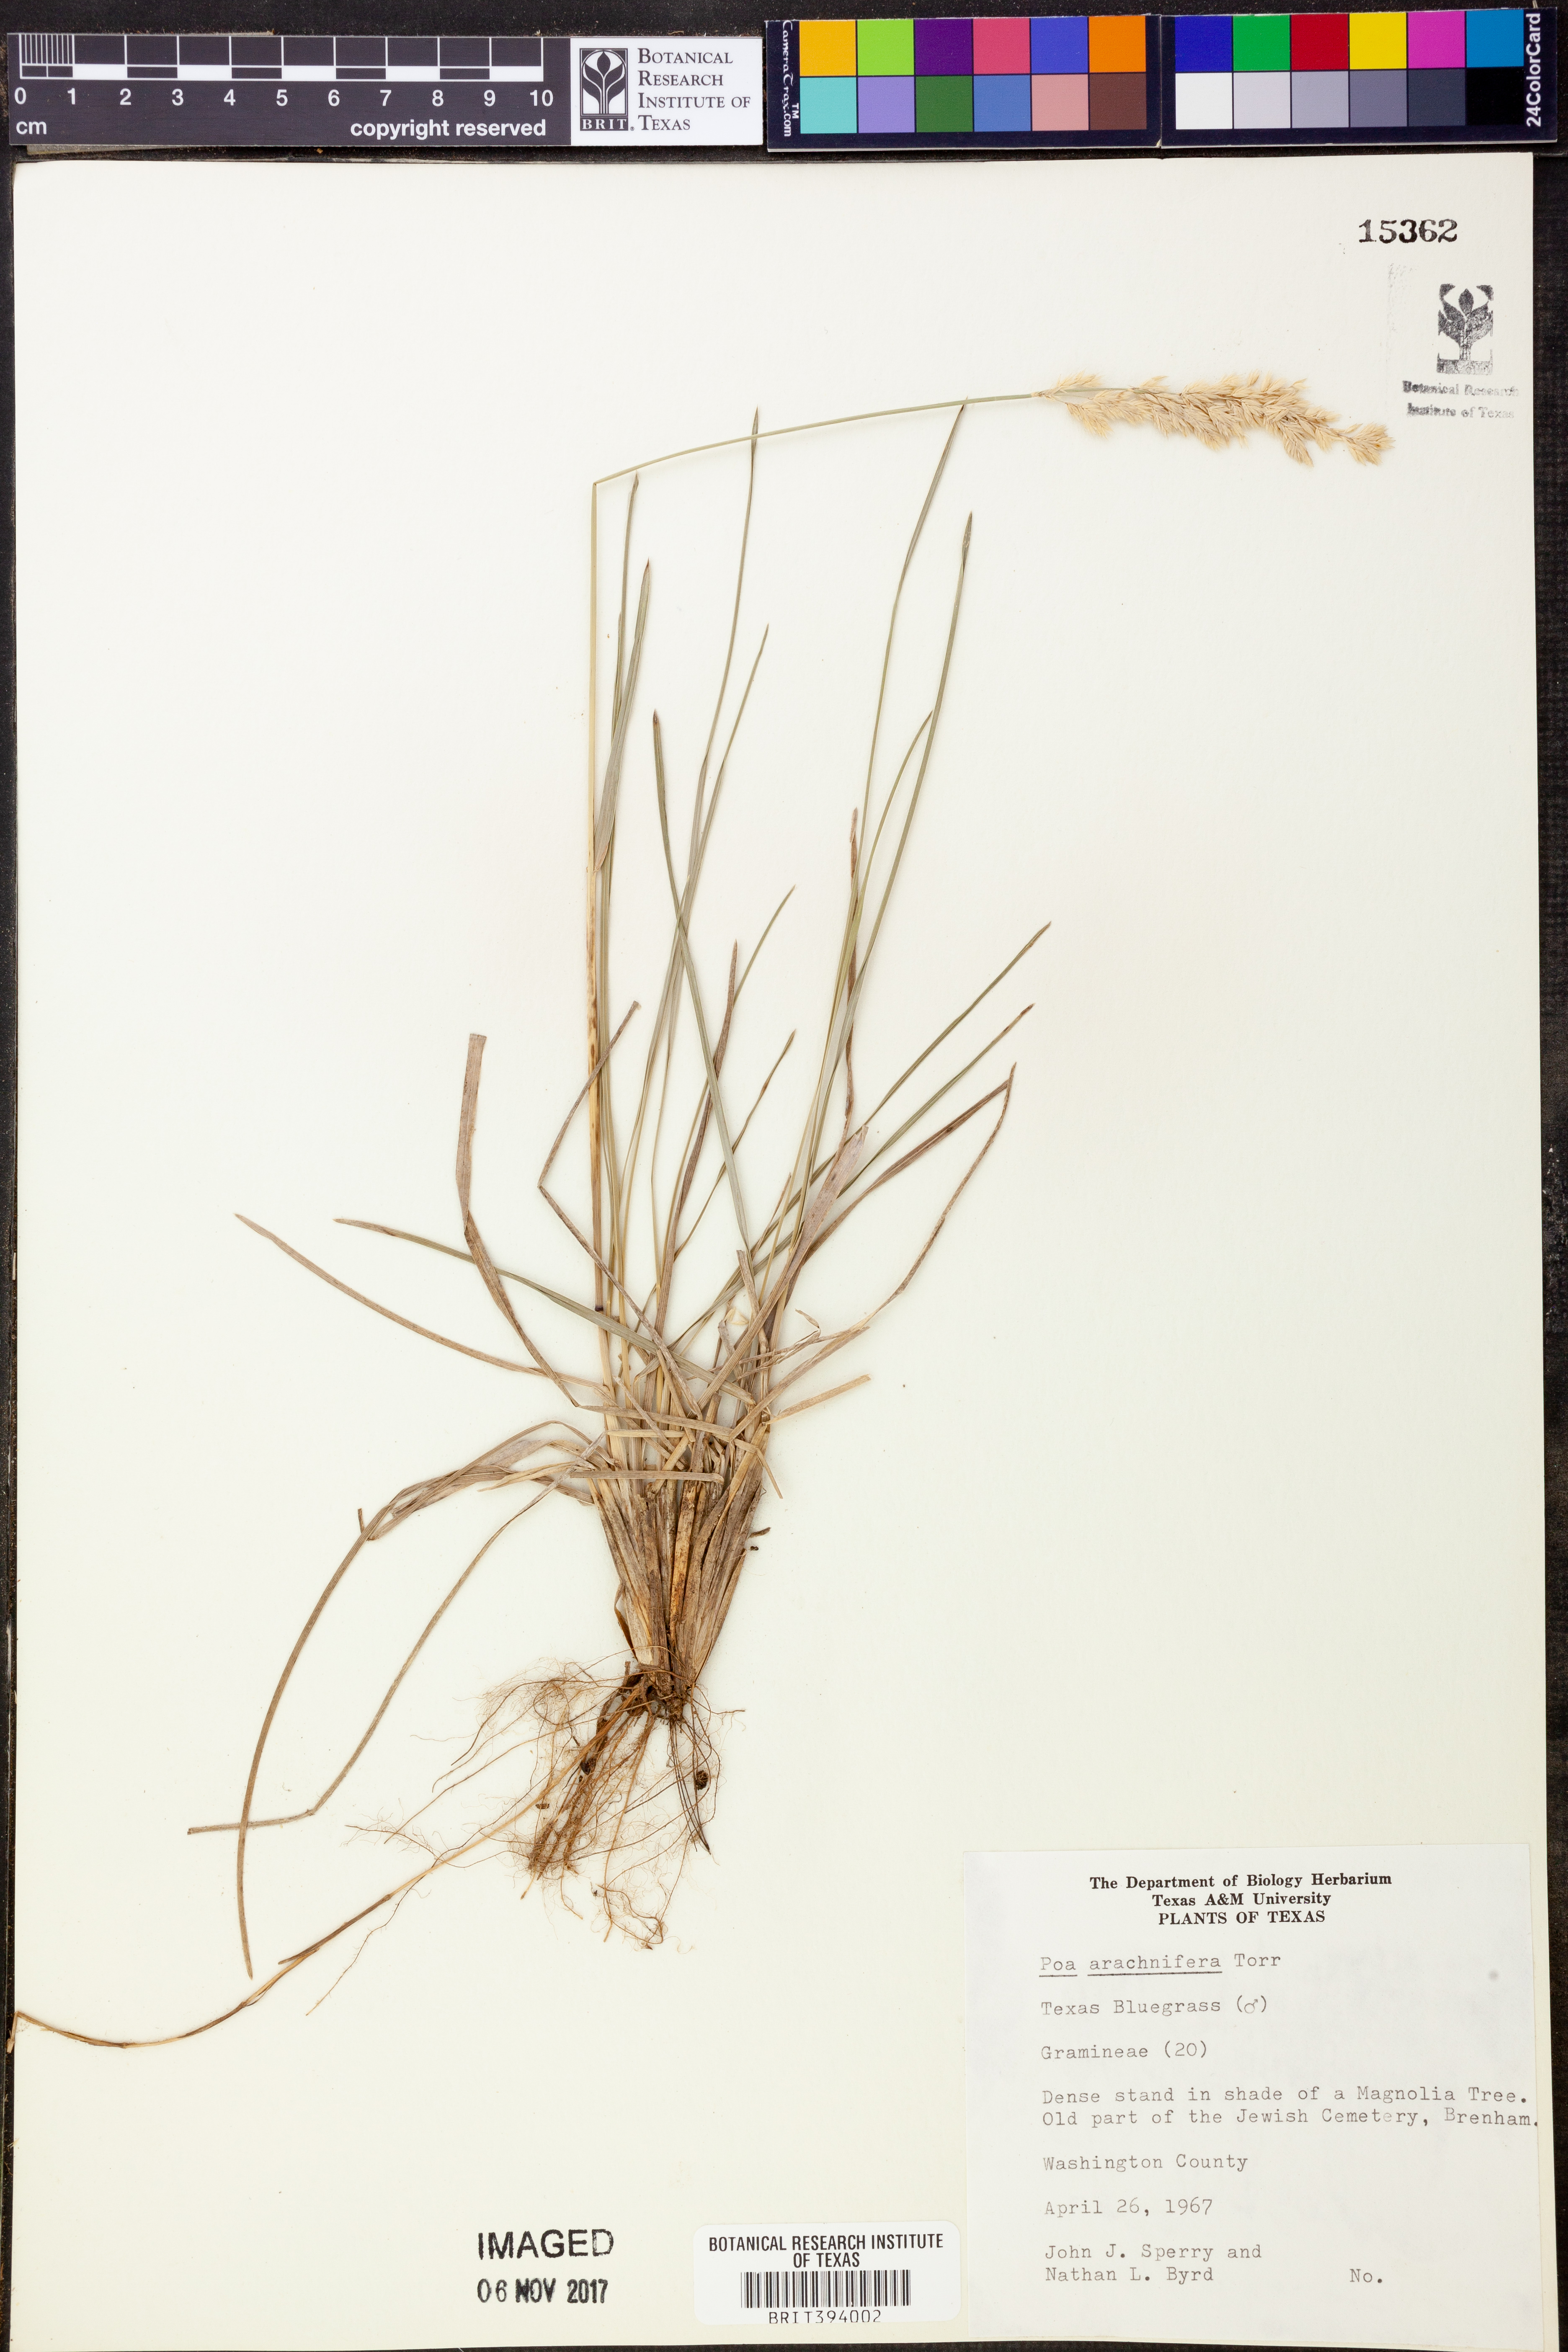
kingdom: Plantae
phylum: Tracheophyta
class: Liliopsida
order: Poales
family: Poaceae
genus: Poa
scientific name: Poa arachnifera
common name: Texas bluegrass
